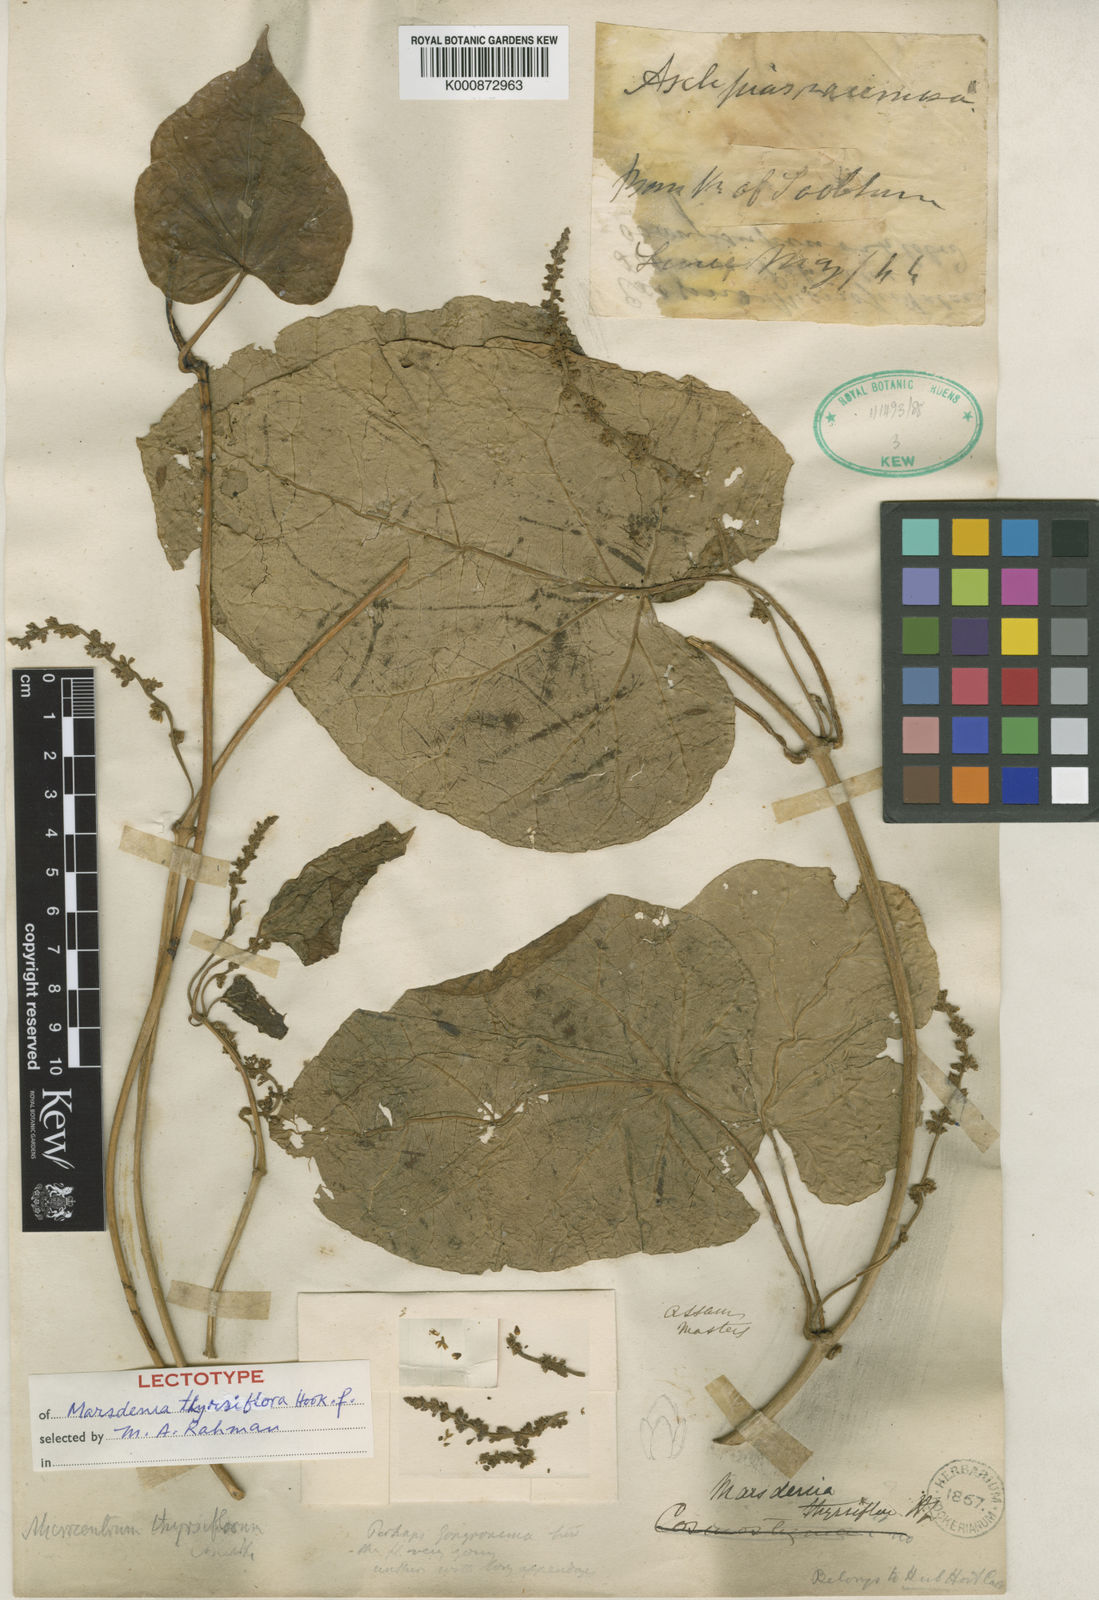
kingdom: Plantae
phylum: Tracheophyta
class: Magnoliopsida
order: Gentianales
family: Apocynaceae
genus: Dischidanthus
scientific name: Dischidanthus thyrsiflorus
